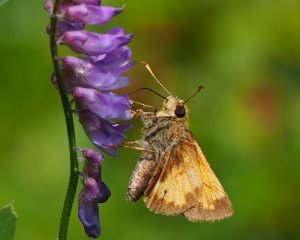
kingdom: Animalia
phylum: Arthropoda
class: Insecta
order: Lepidoptera
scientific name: Lepidoptera
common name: Butterflies
